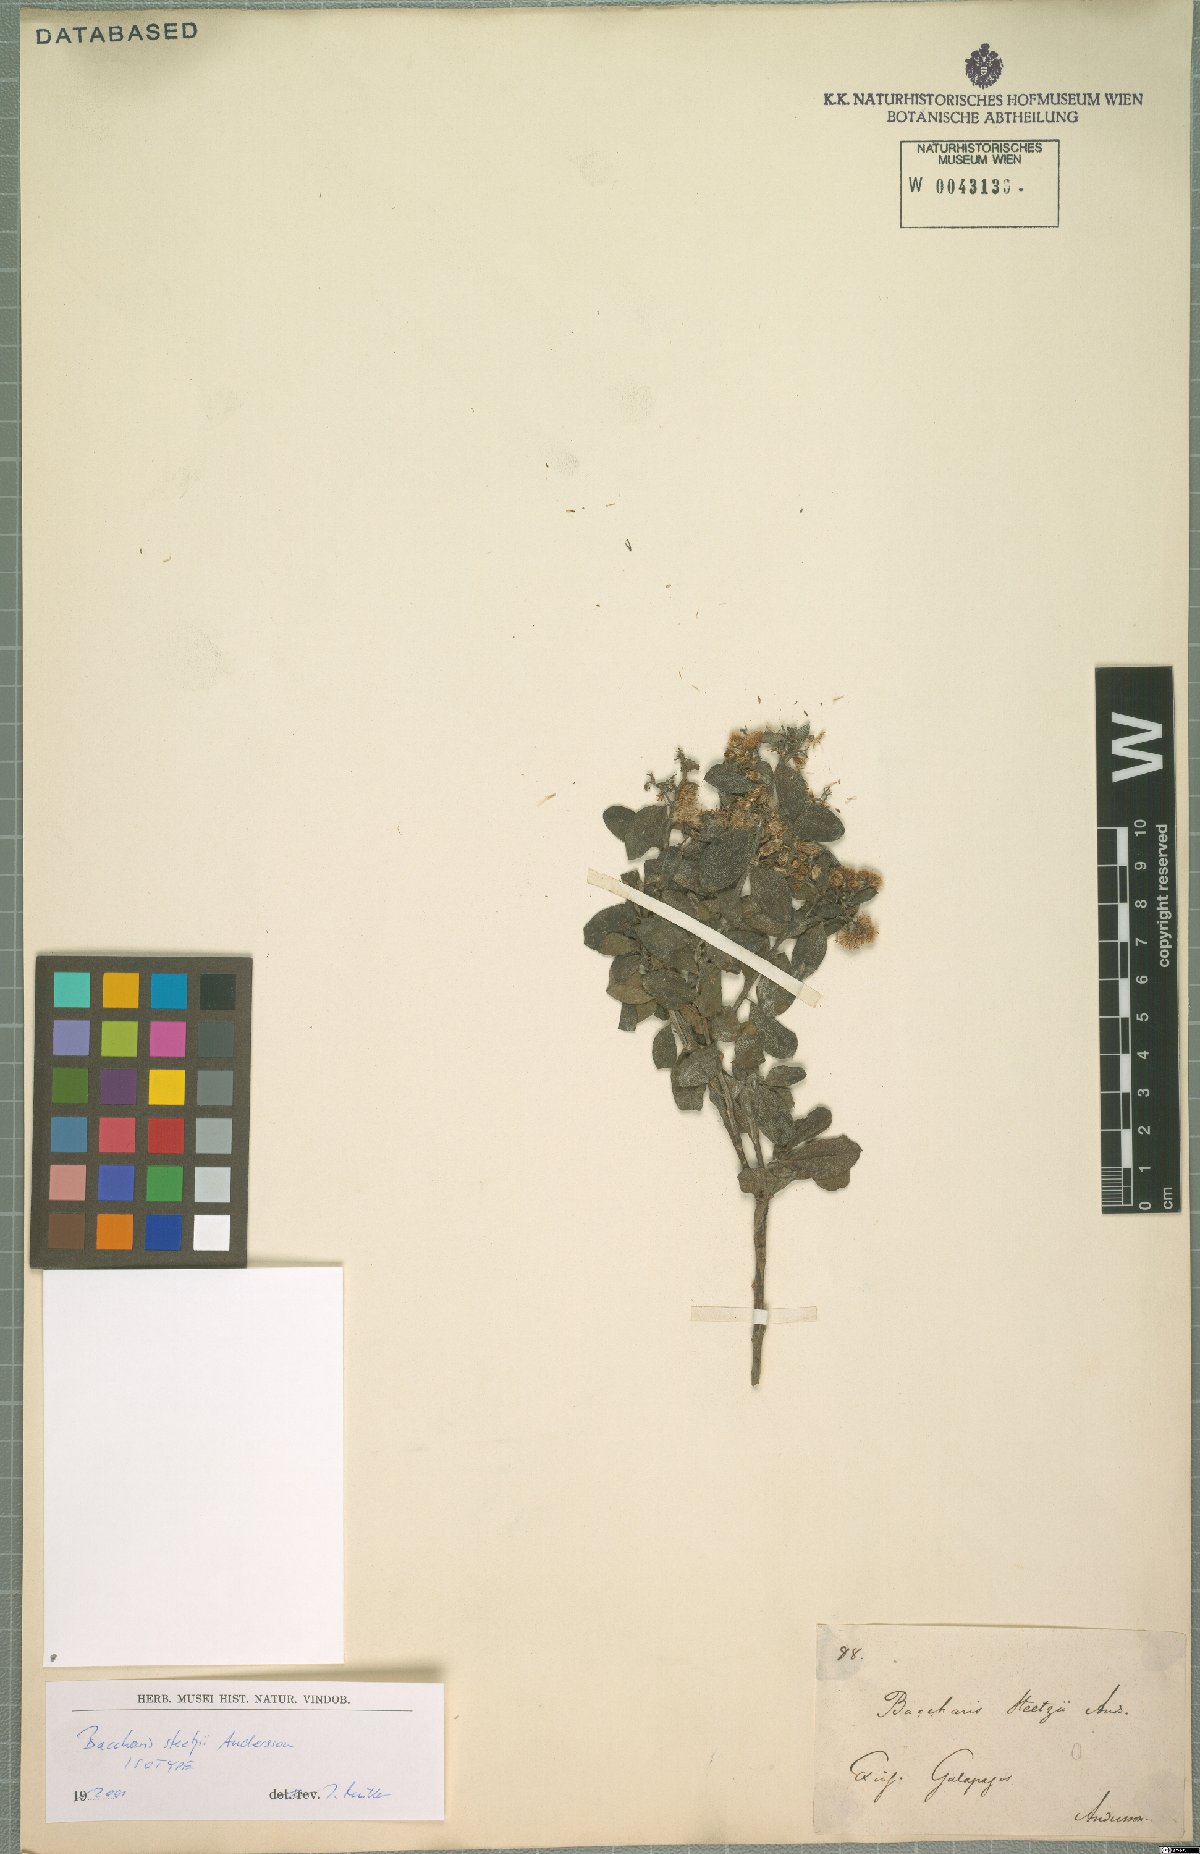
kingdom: Plantae
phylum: Tracheophyta
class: Magnoliopsida
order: Asterales
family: Asteraceae
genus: Baccharis
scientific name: Baccharis steetzii
